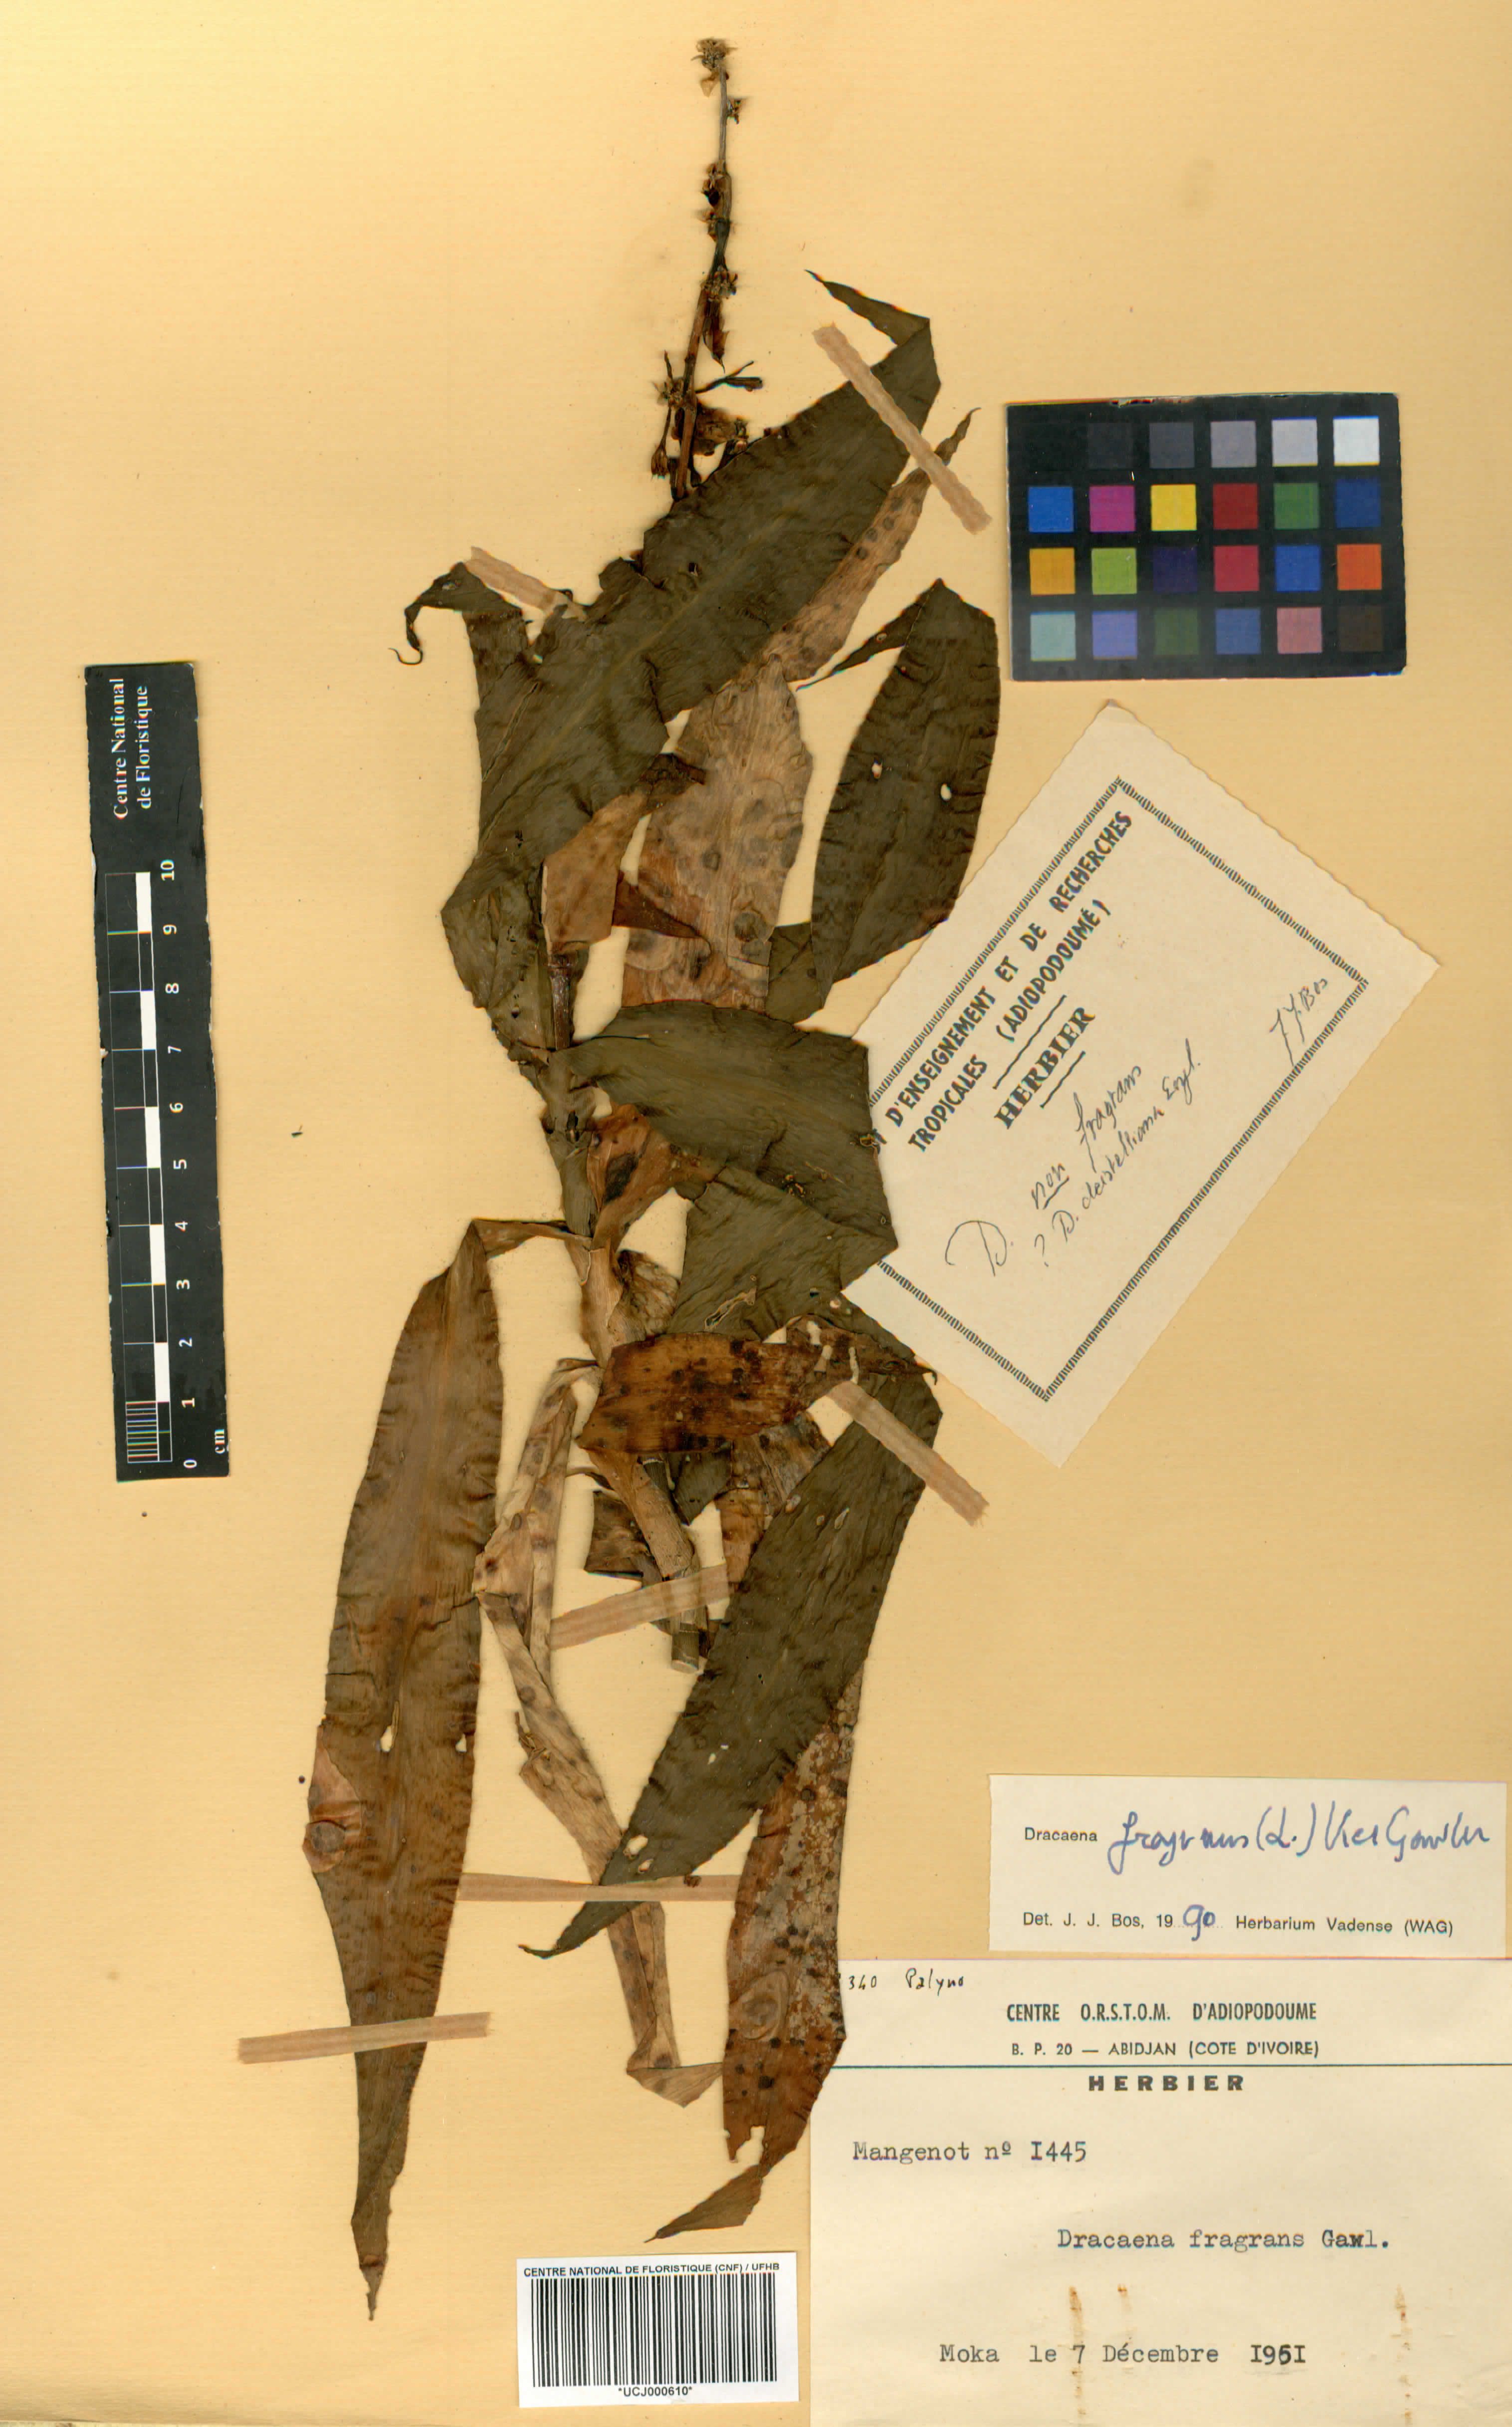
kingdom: Plantae
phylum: Tracheophyta
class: Liliopsida
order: Asparagales
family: Asparagaceae
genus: Dracaena
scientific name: Dracaena fragrans
